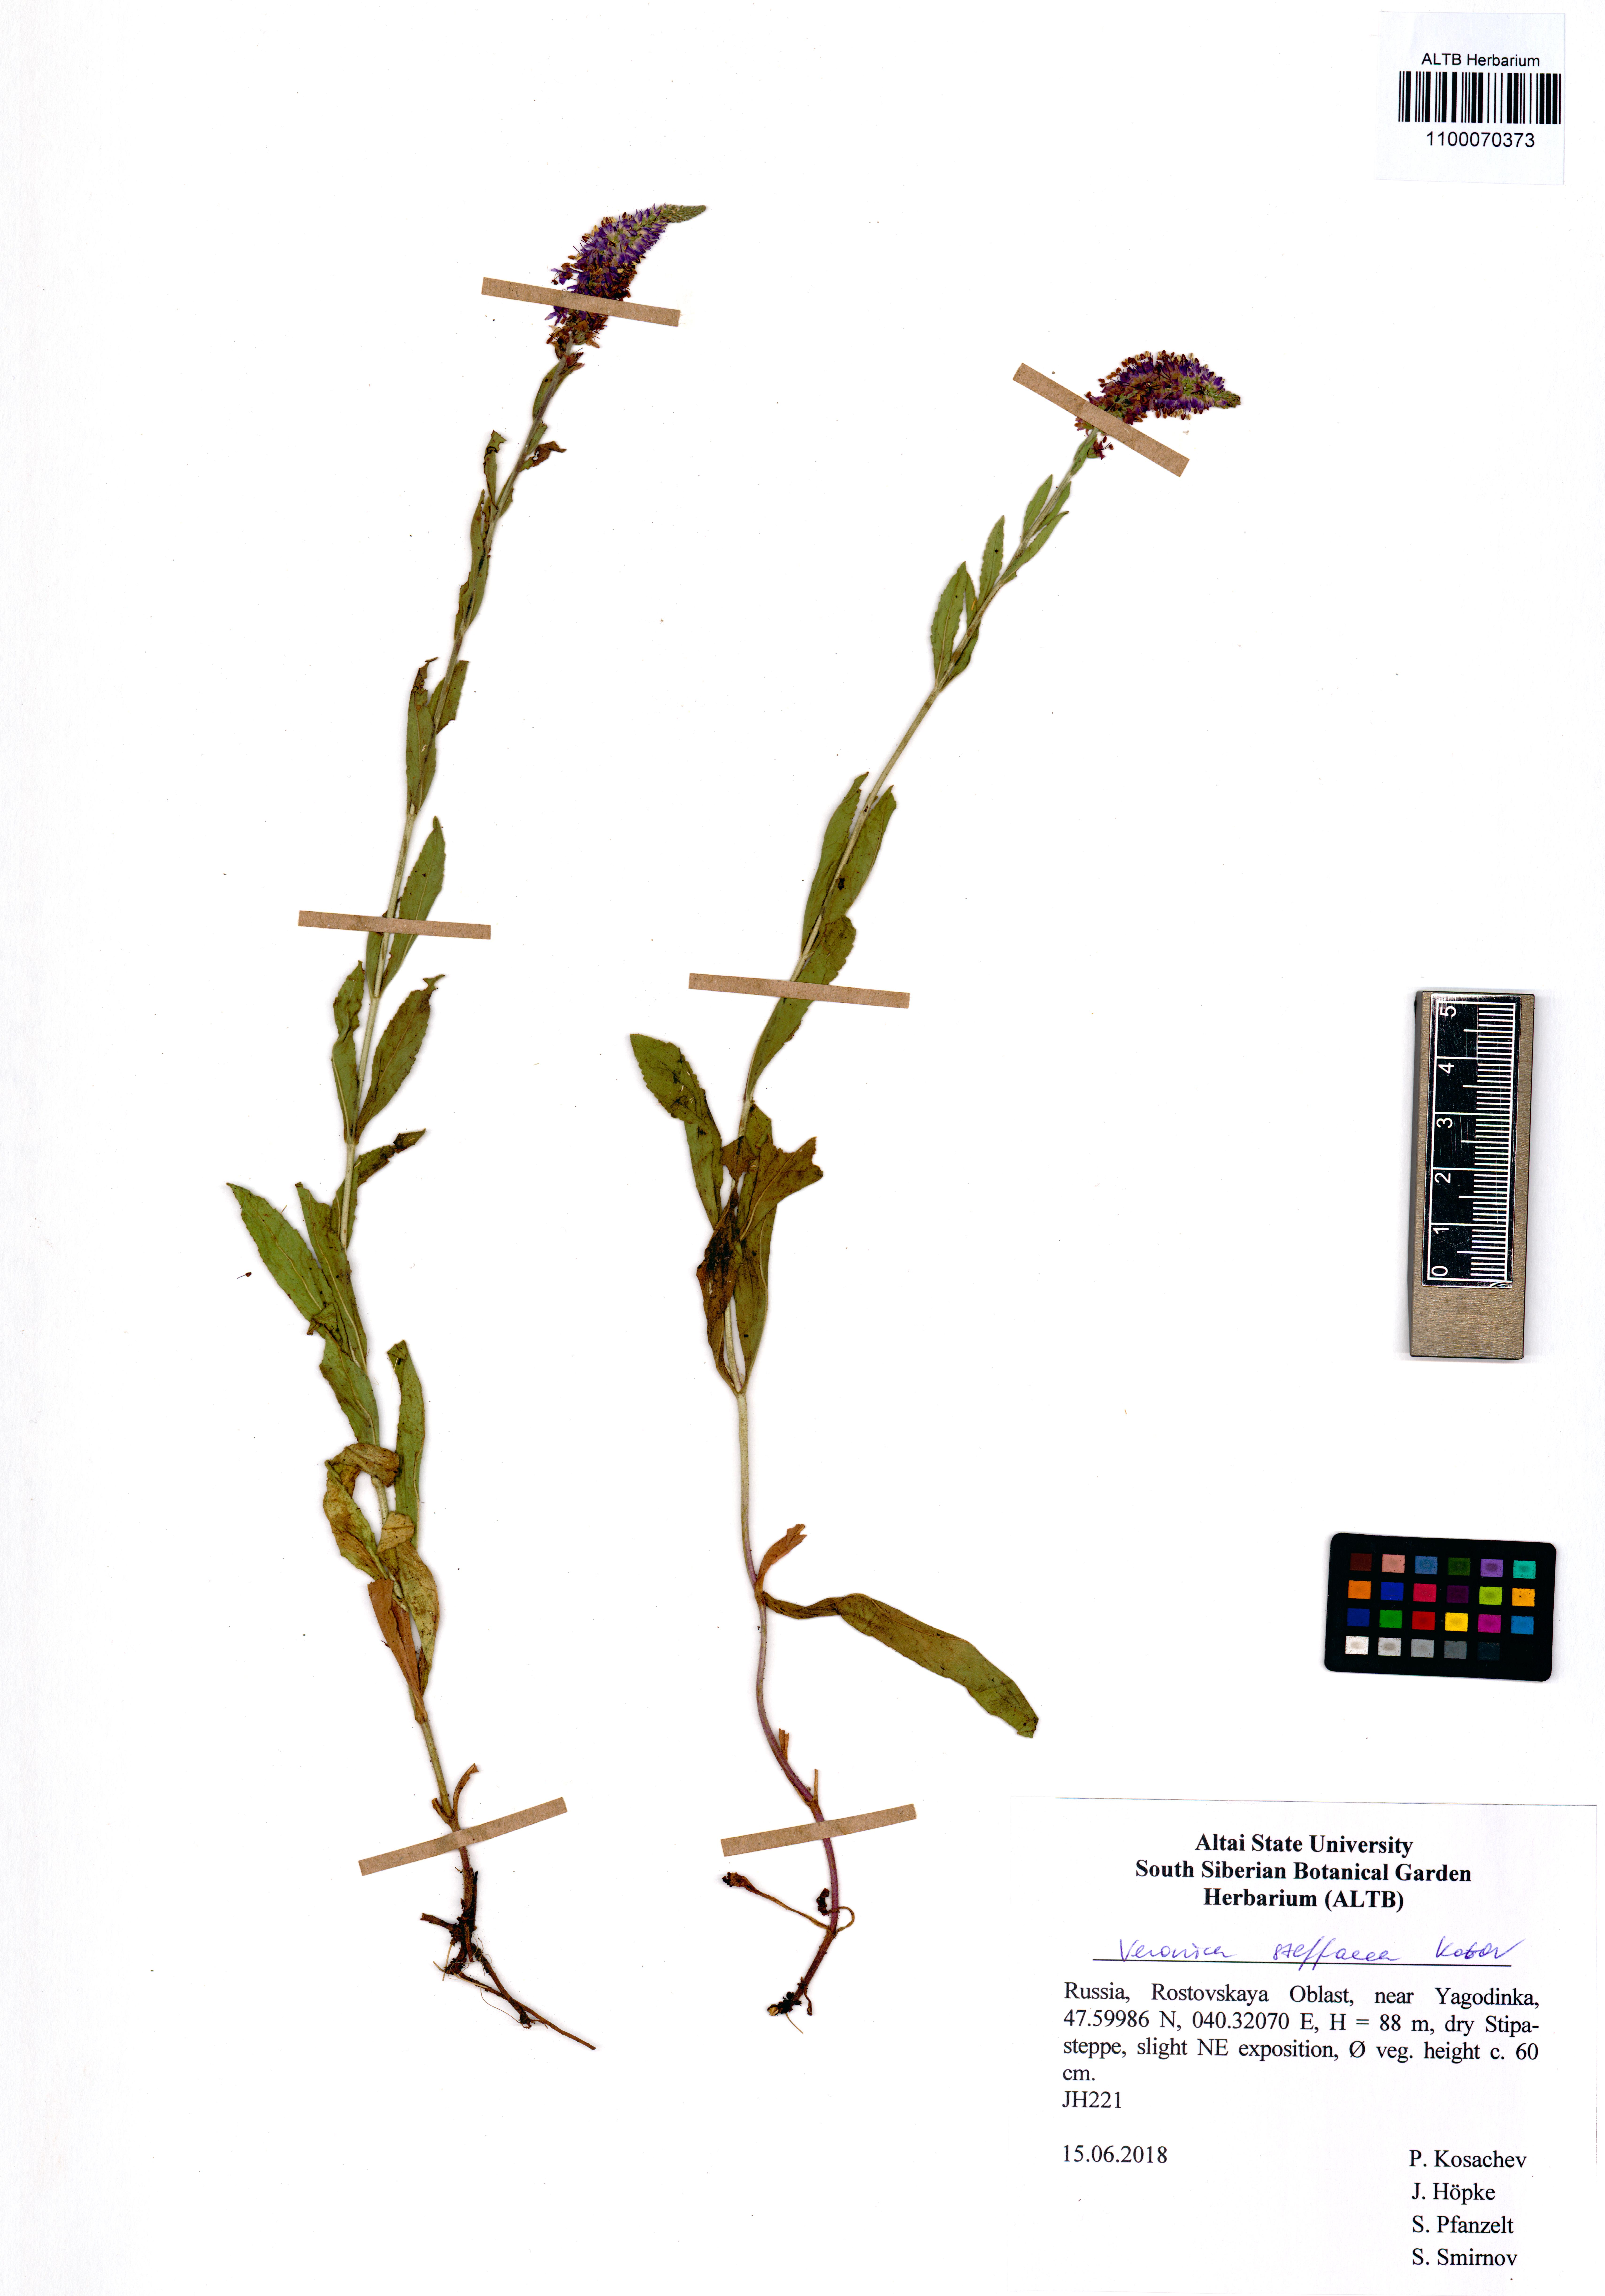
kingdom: Plantae
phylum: Tracheophyta
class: Magnoliopsida
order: Lamiales
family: Plantaginaceae
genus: Veronica
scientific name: Veronica barrelieri
